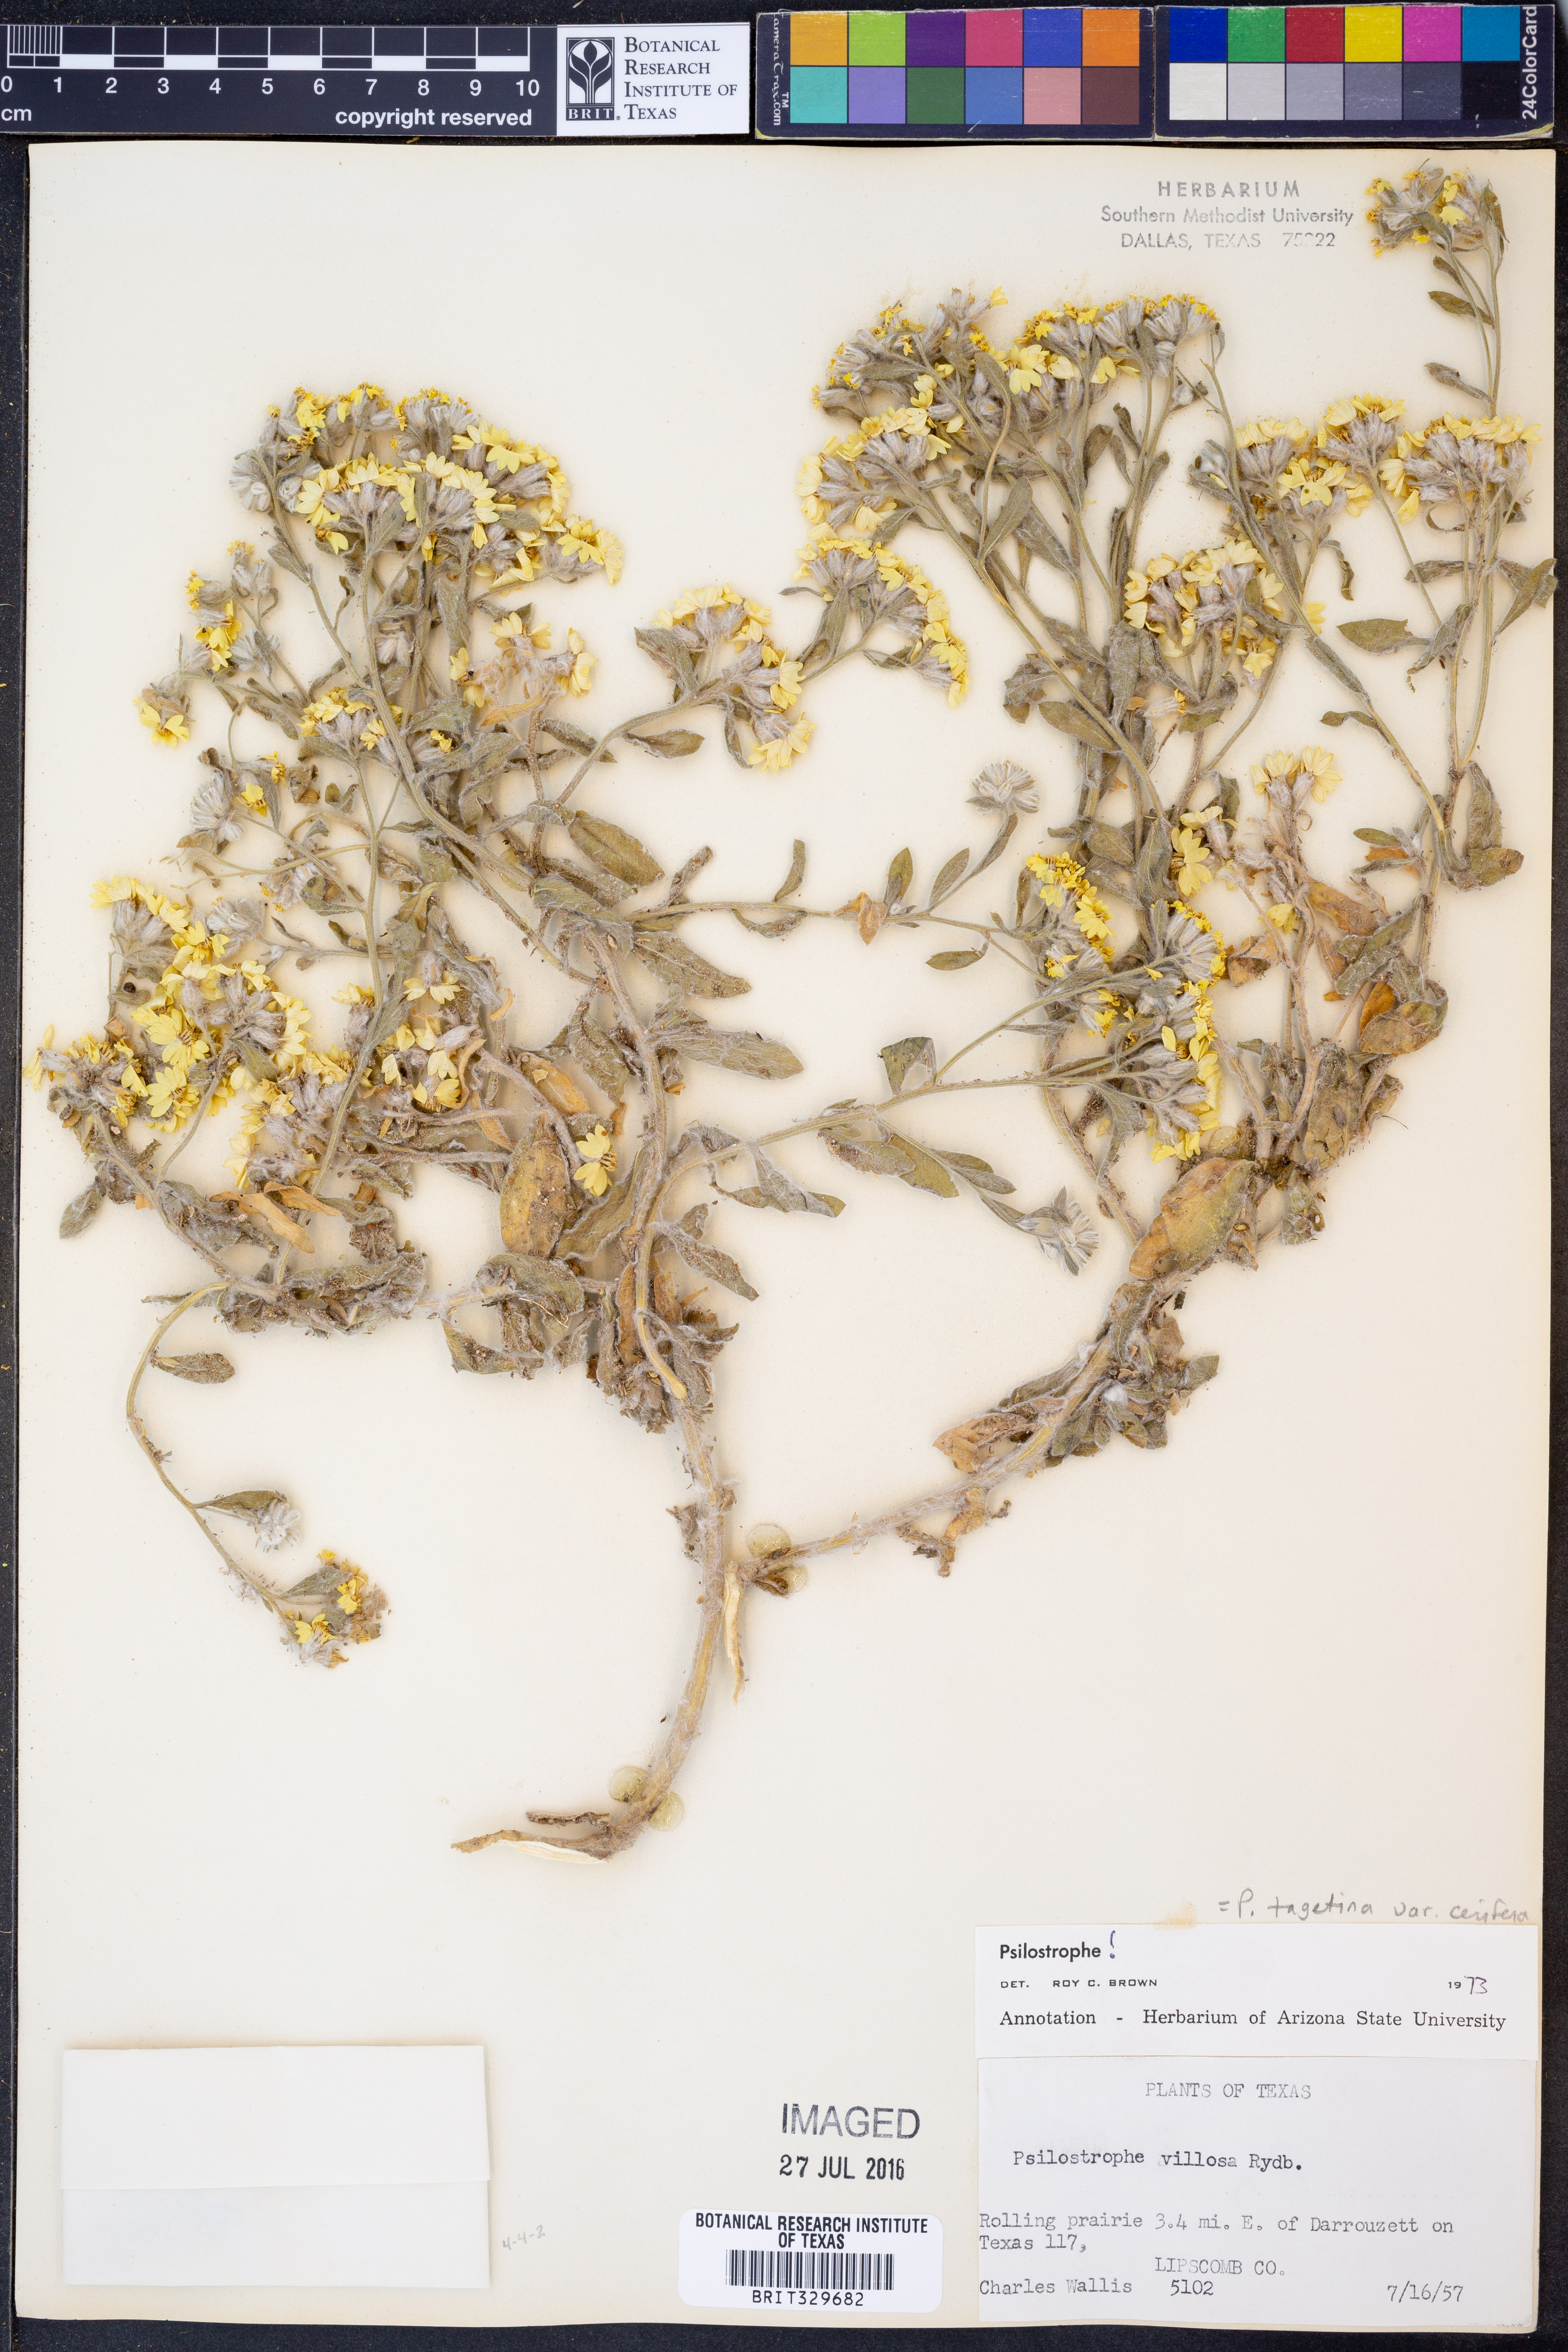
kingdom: Plantae
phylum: Tracheophyta
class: Magnoliopsida
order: Asterales
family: Asteraceae
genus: Psilostrophe
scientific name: Psilostrophe villosa
